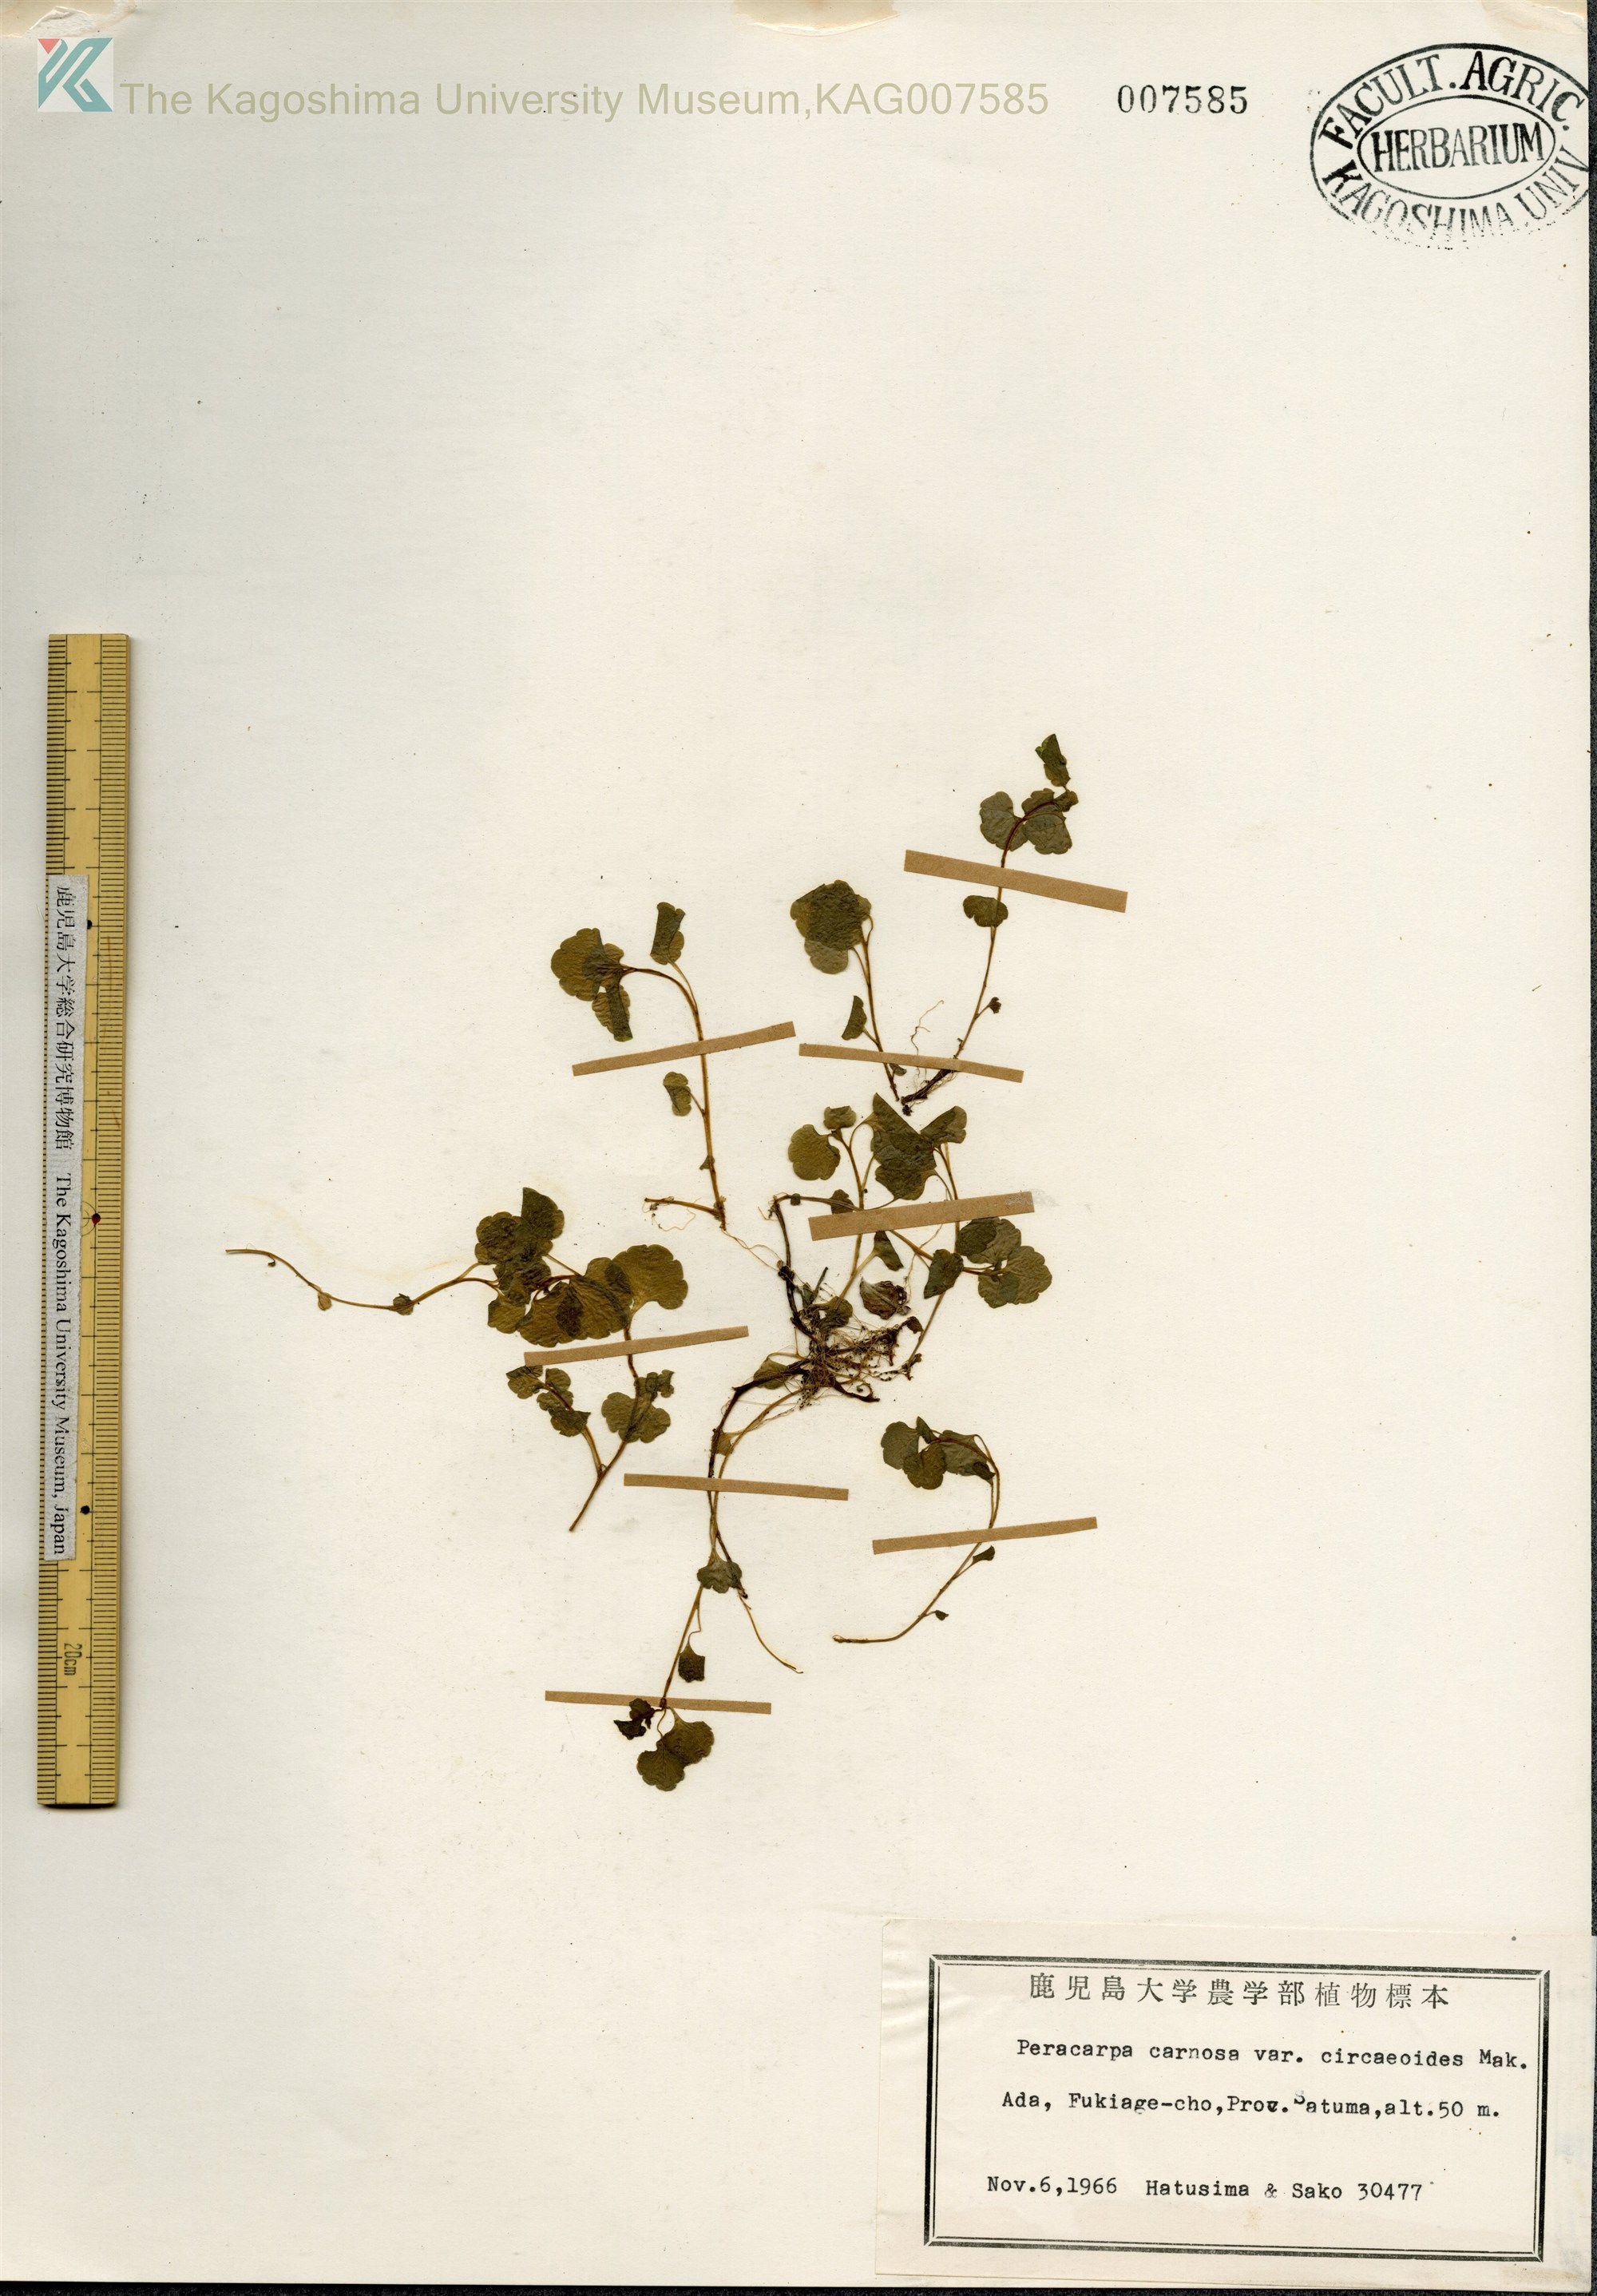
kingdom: Plantae
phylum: Tracheophyta
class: Magnoliopsida
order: Asterales
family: Campanulaceae
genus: Peracarpa
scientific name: Peracarpa carnosa
